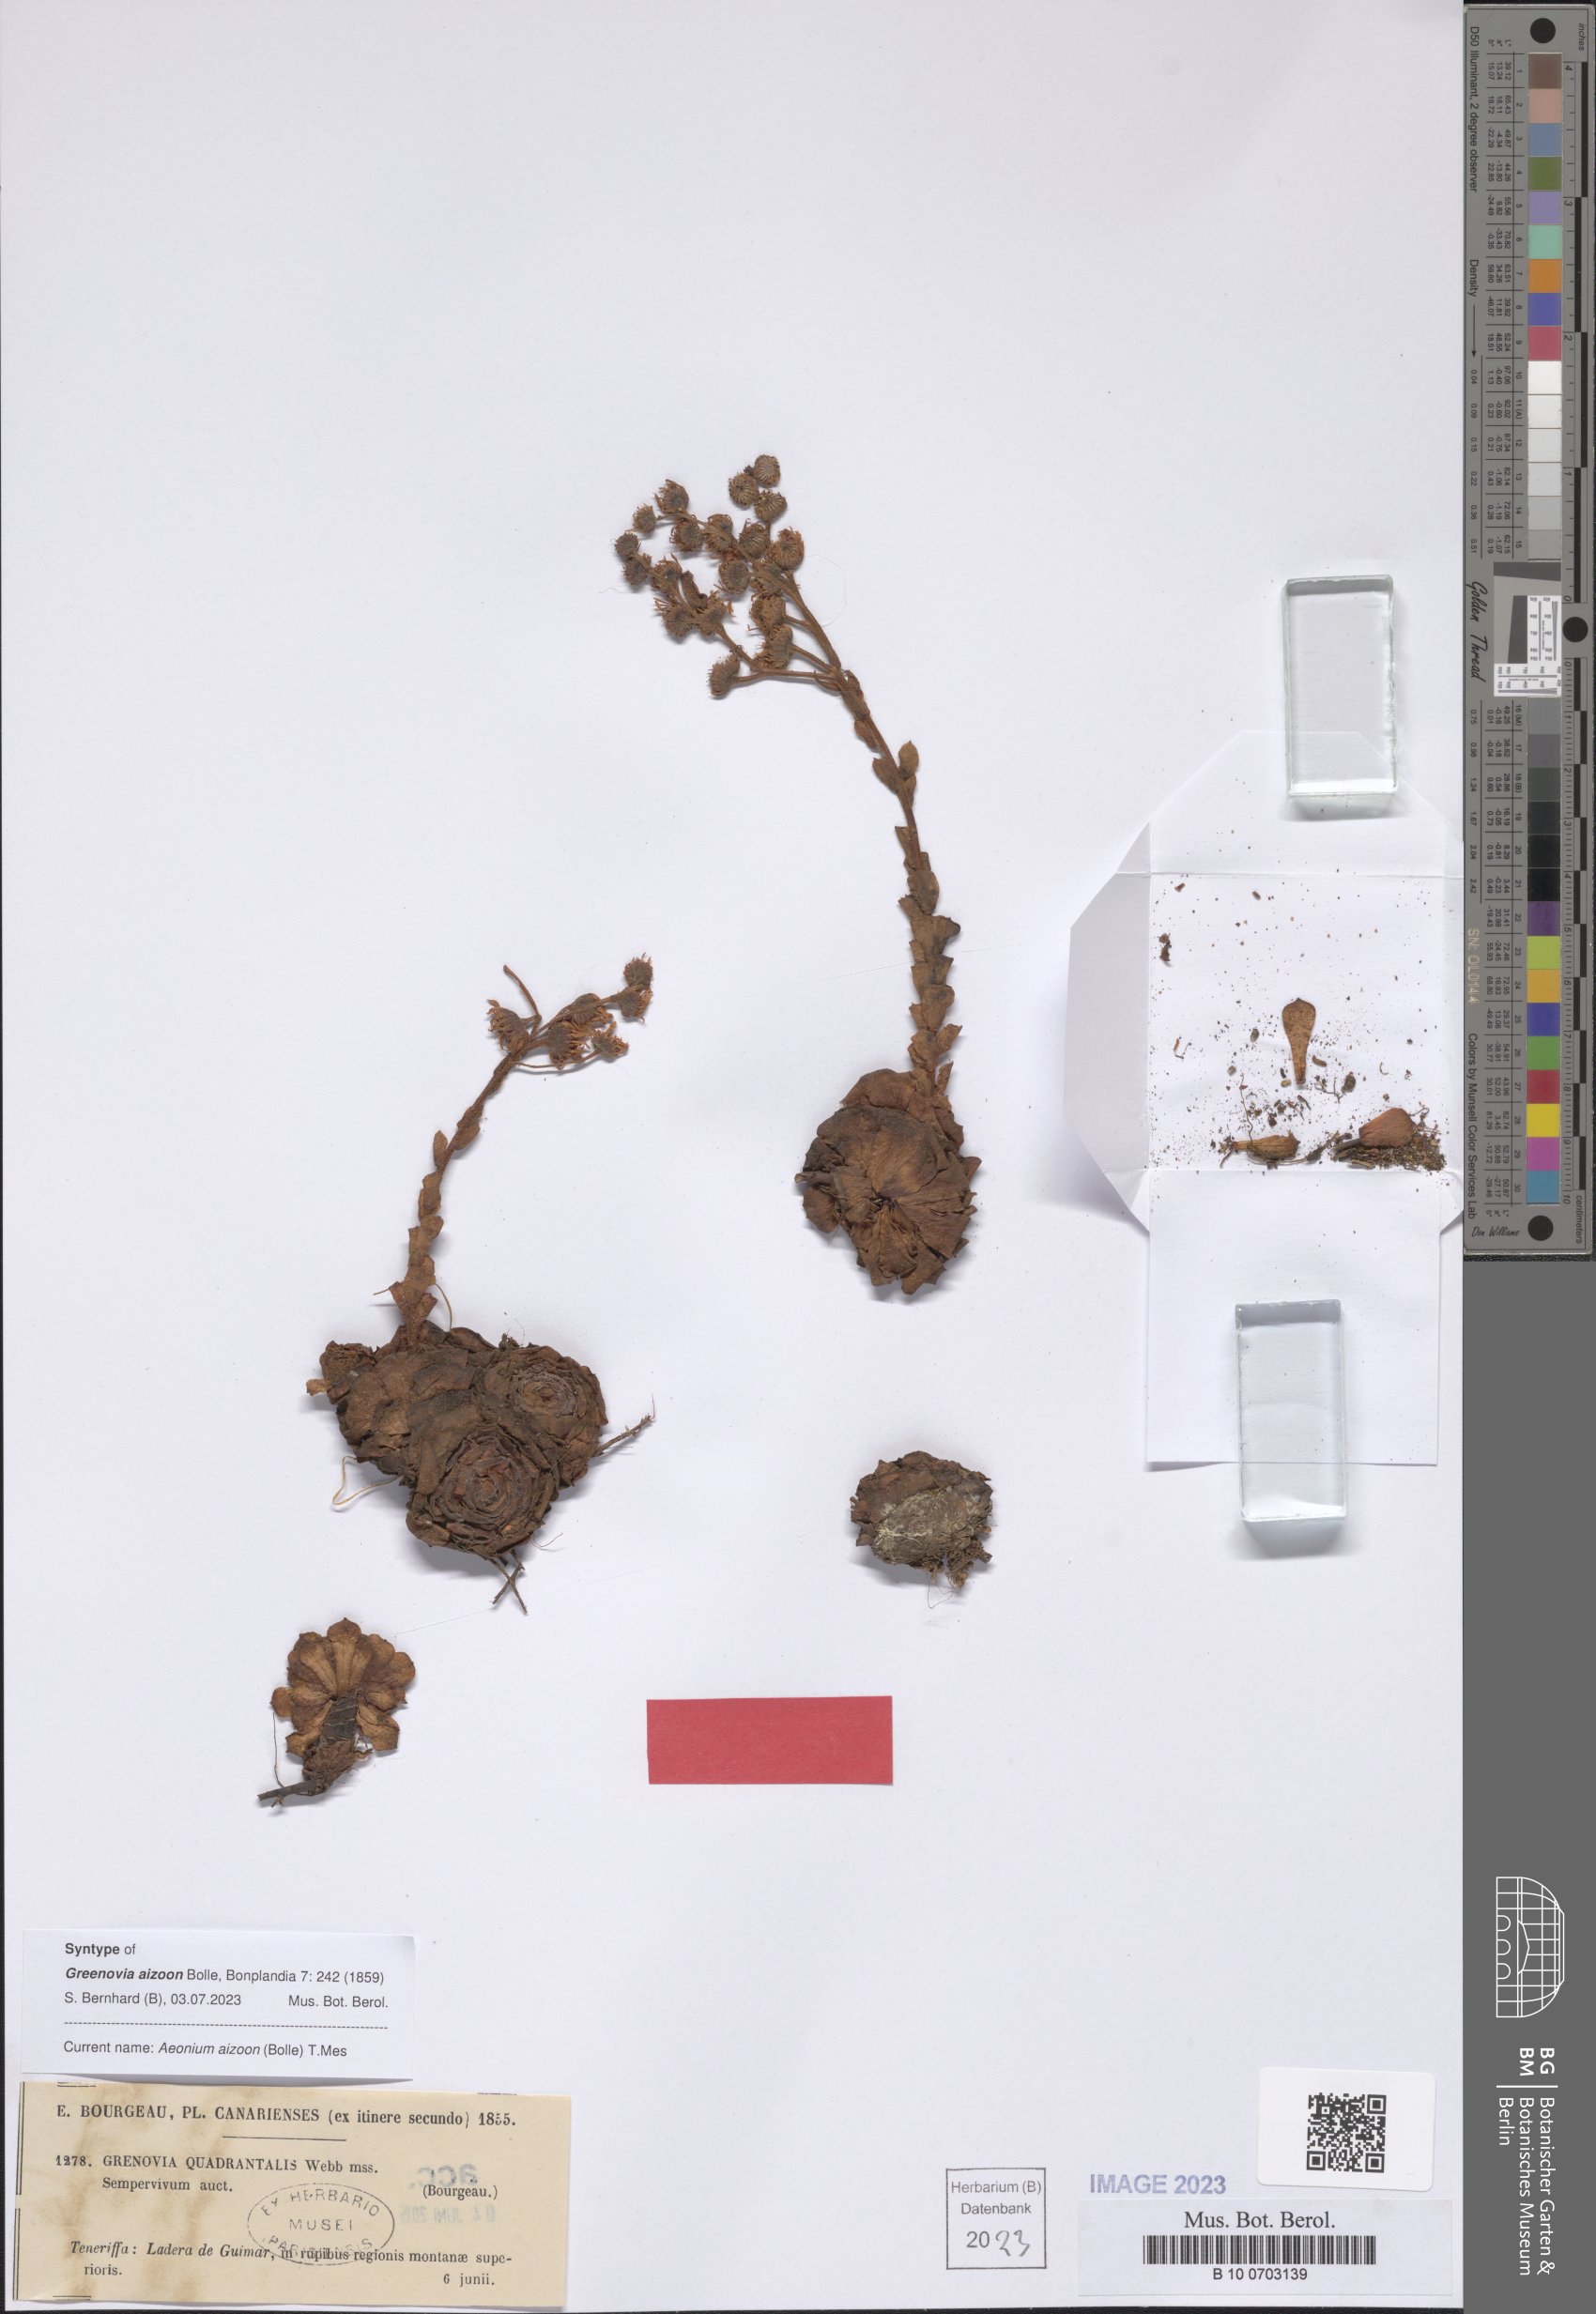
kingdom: Plantae
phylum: Tracheophyta
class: Magnoliopsida
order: Saxifragales
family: Crassulaceae
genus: Aeonium
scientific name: Aeonium aizoon
